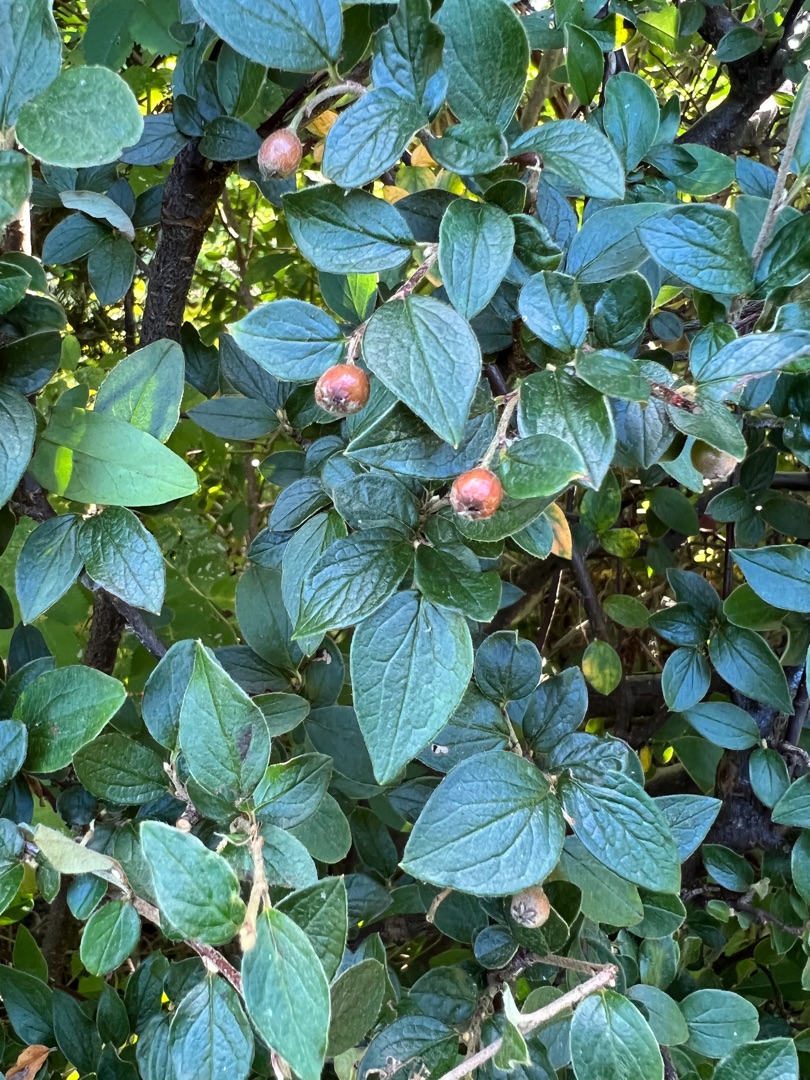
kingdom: Plantae
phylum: Tracheophyta
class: Magnoliopsida
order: Rosales
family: Rosaceae
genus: Cotoneaster
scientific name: Cotoneaster dielsianus
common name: Kinesisk dværgmispel
